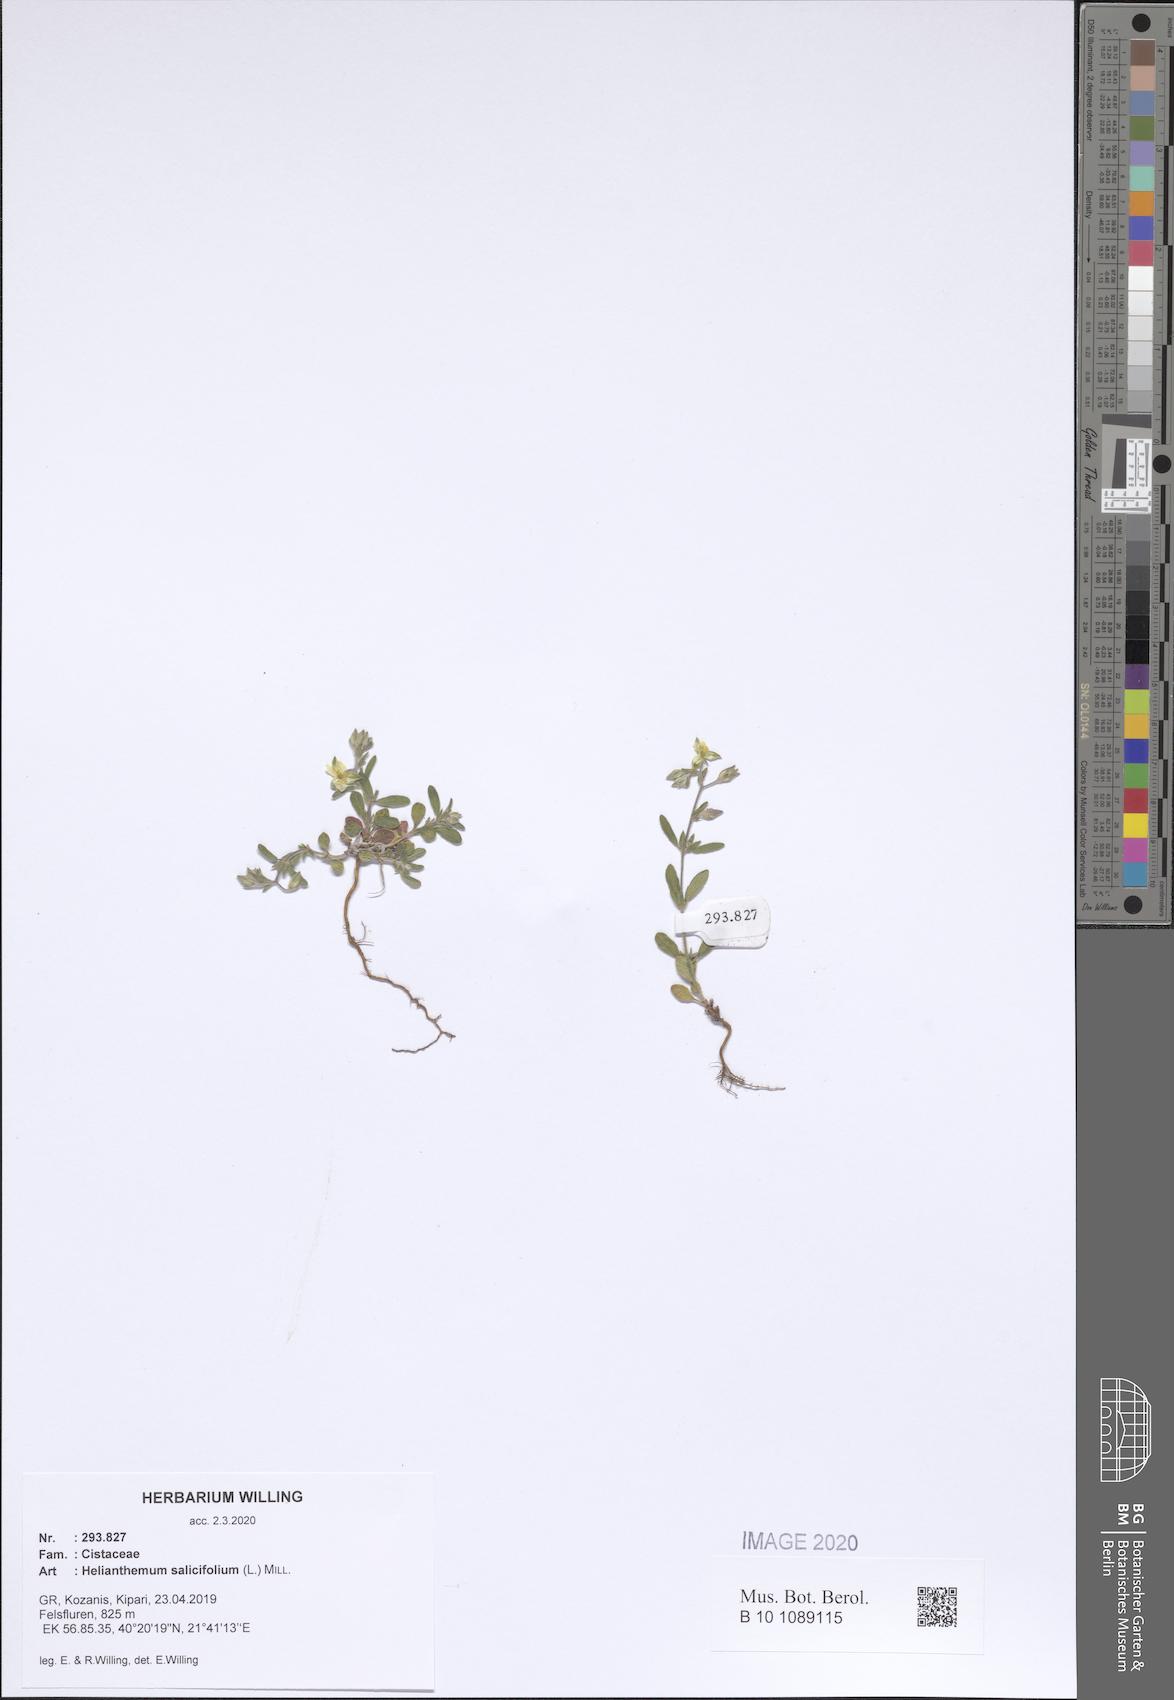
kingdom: Plantae
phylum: Tracheophyta
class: Magnoliopsida
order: Malvales
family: Cistaceae
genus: Helianthemum
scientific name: Helianthemum salicifolium
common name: Willowleaf frostweed
